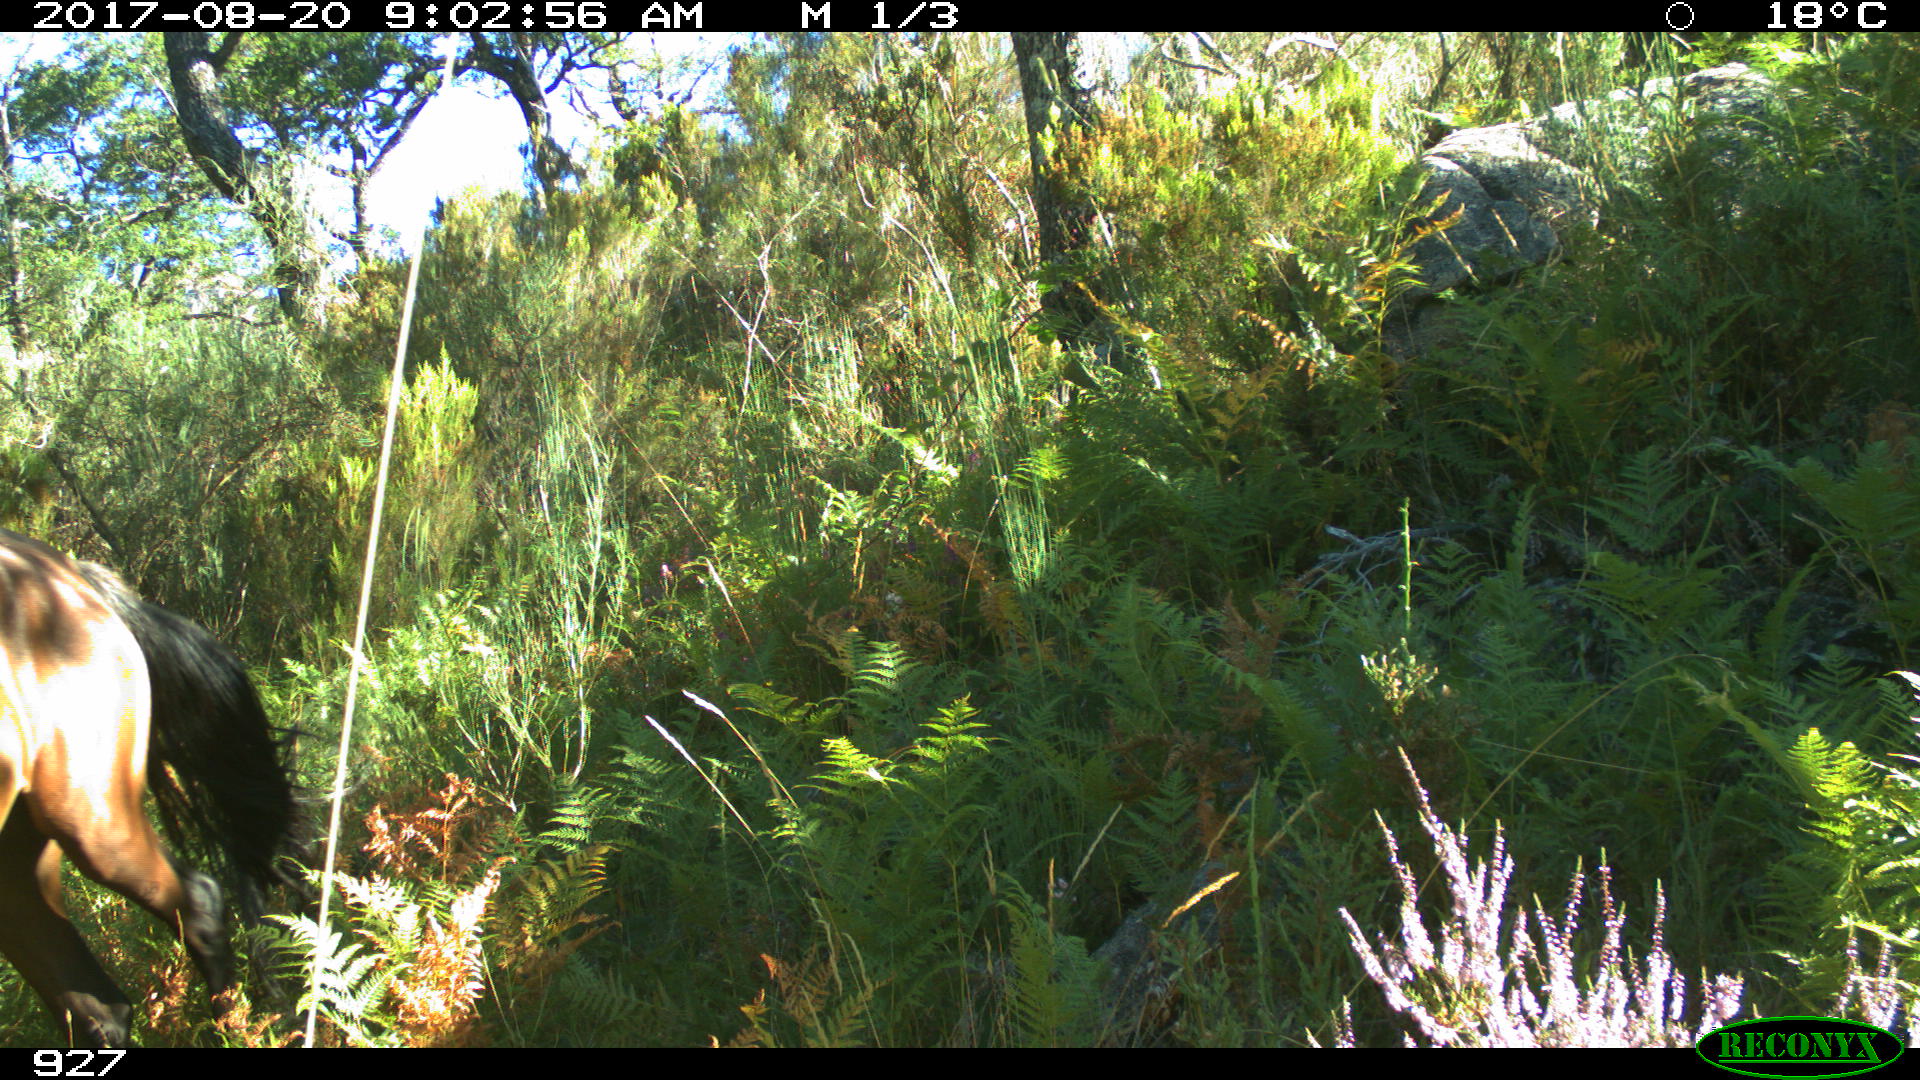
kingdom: Animalia
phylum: Chordata
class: Mammalia
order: Perissodactyla
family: Equidae
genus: Equus
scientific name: Equus caballus
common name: Horse
